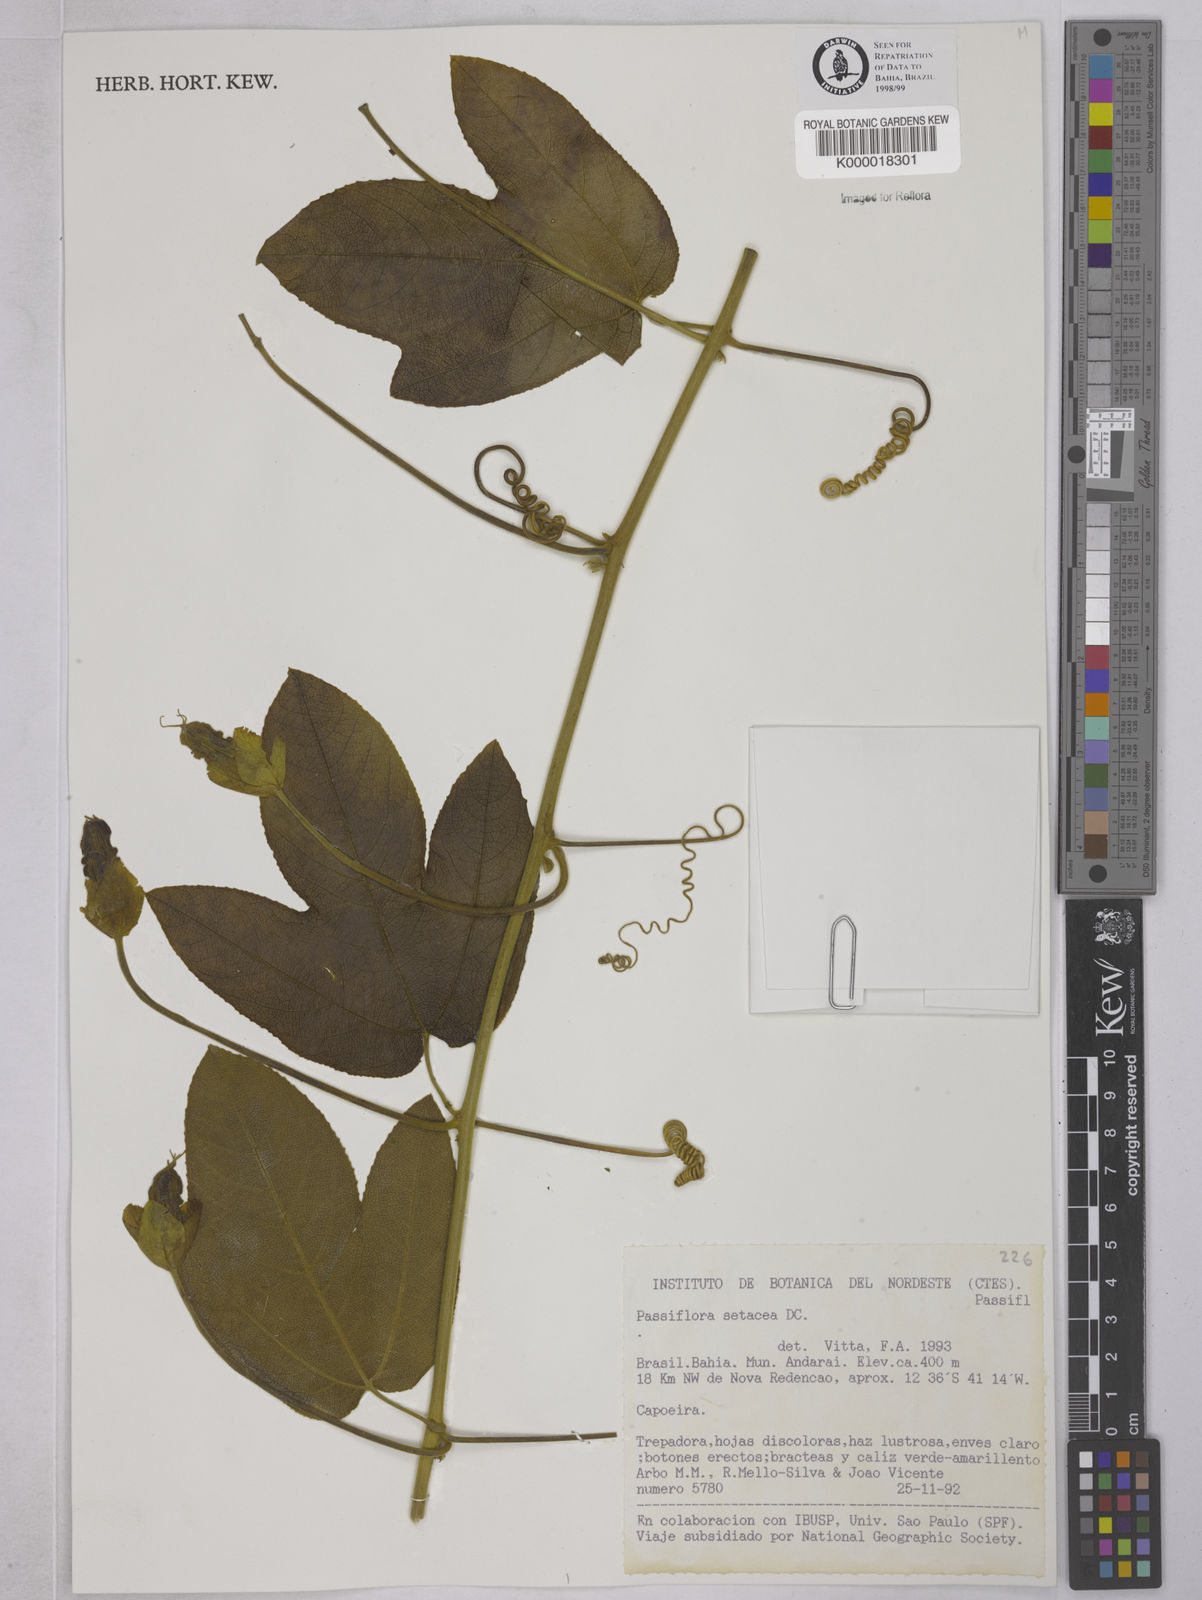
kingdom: Plantae
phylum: Tracheophyta
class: Magnoliopsida
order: Malpighiales
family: Passifloraceae
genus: Passiflora
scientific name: Passiflora setacea
